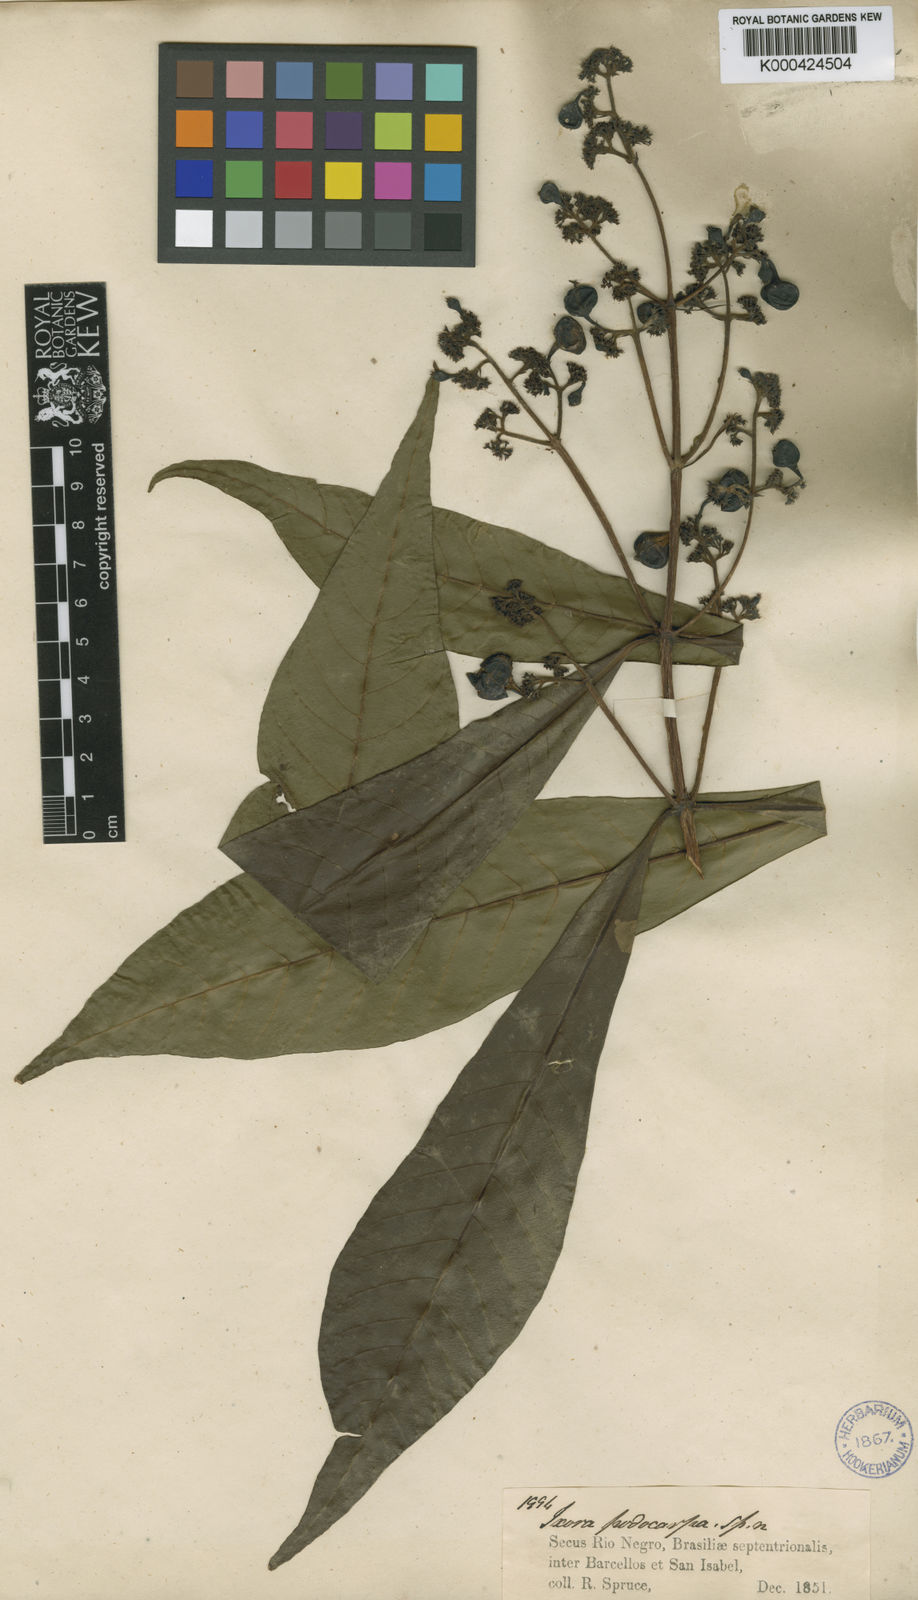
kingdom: Plantae
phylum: Tracheophyta
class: Magnoliopsida
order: Gentianales
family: Rubiaceae
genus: Simira
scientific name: Simira podocarpa
